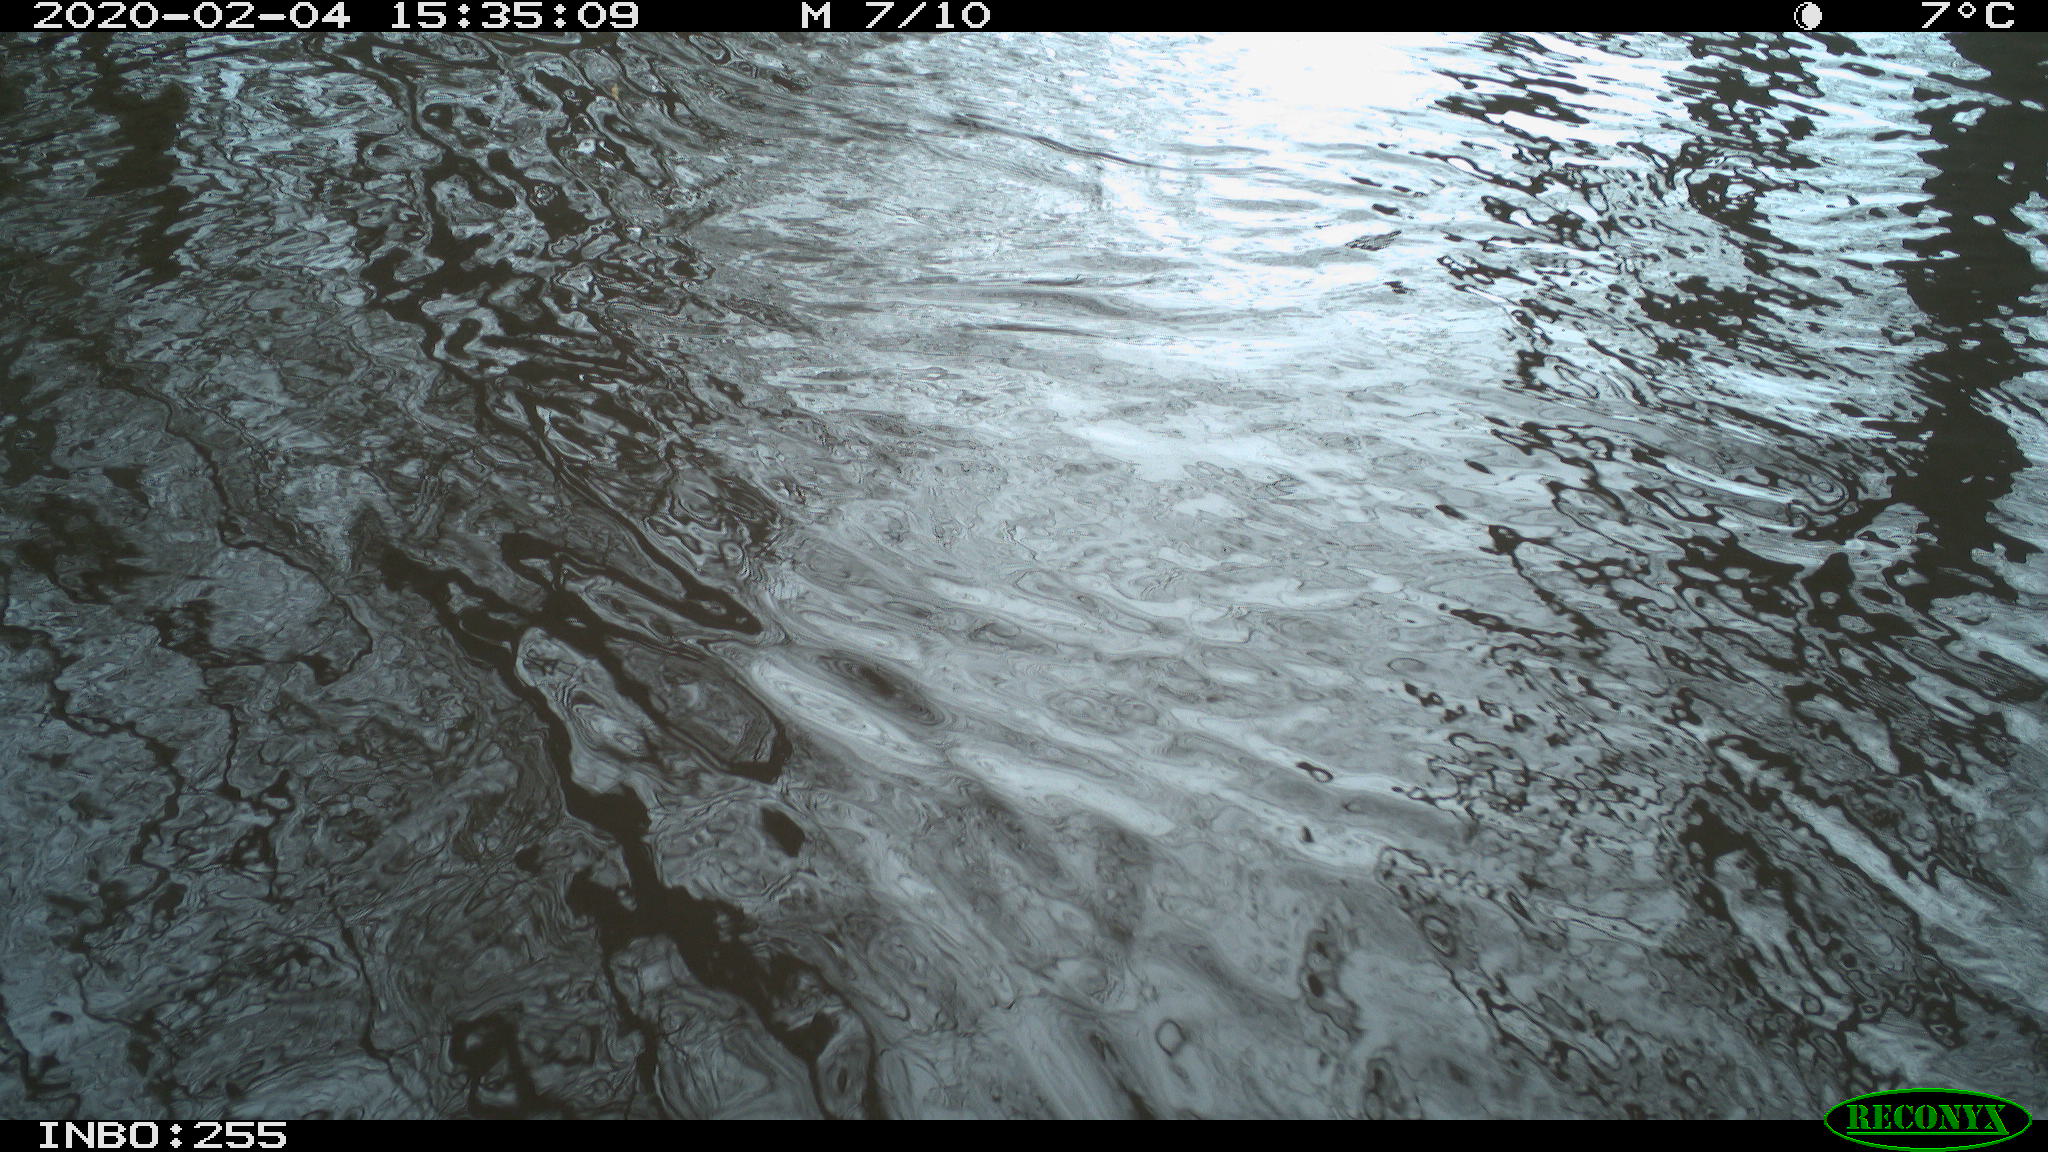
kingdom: Animalia
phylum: Chordata
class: Aves
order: Gruiformes
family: Rallidae
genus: Fulica
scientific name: Fulica atra
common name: Eurasian coot
